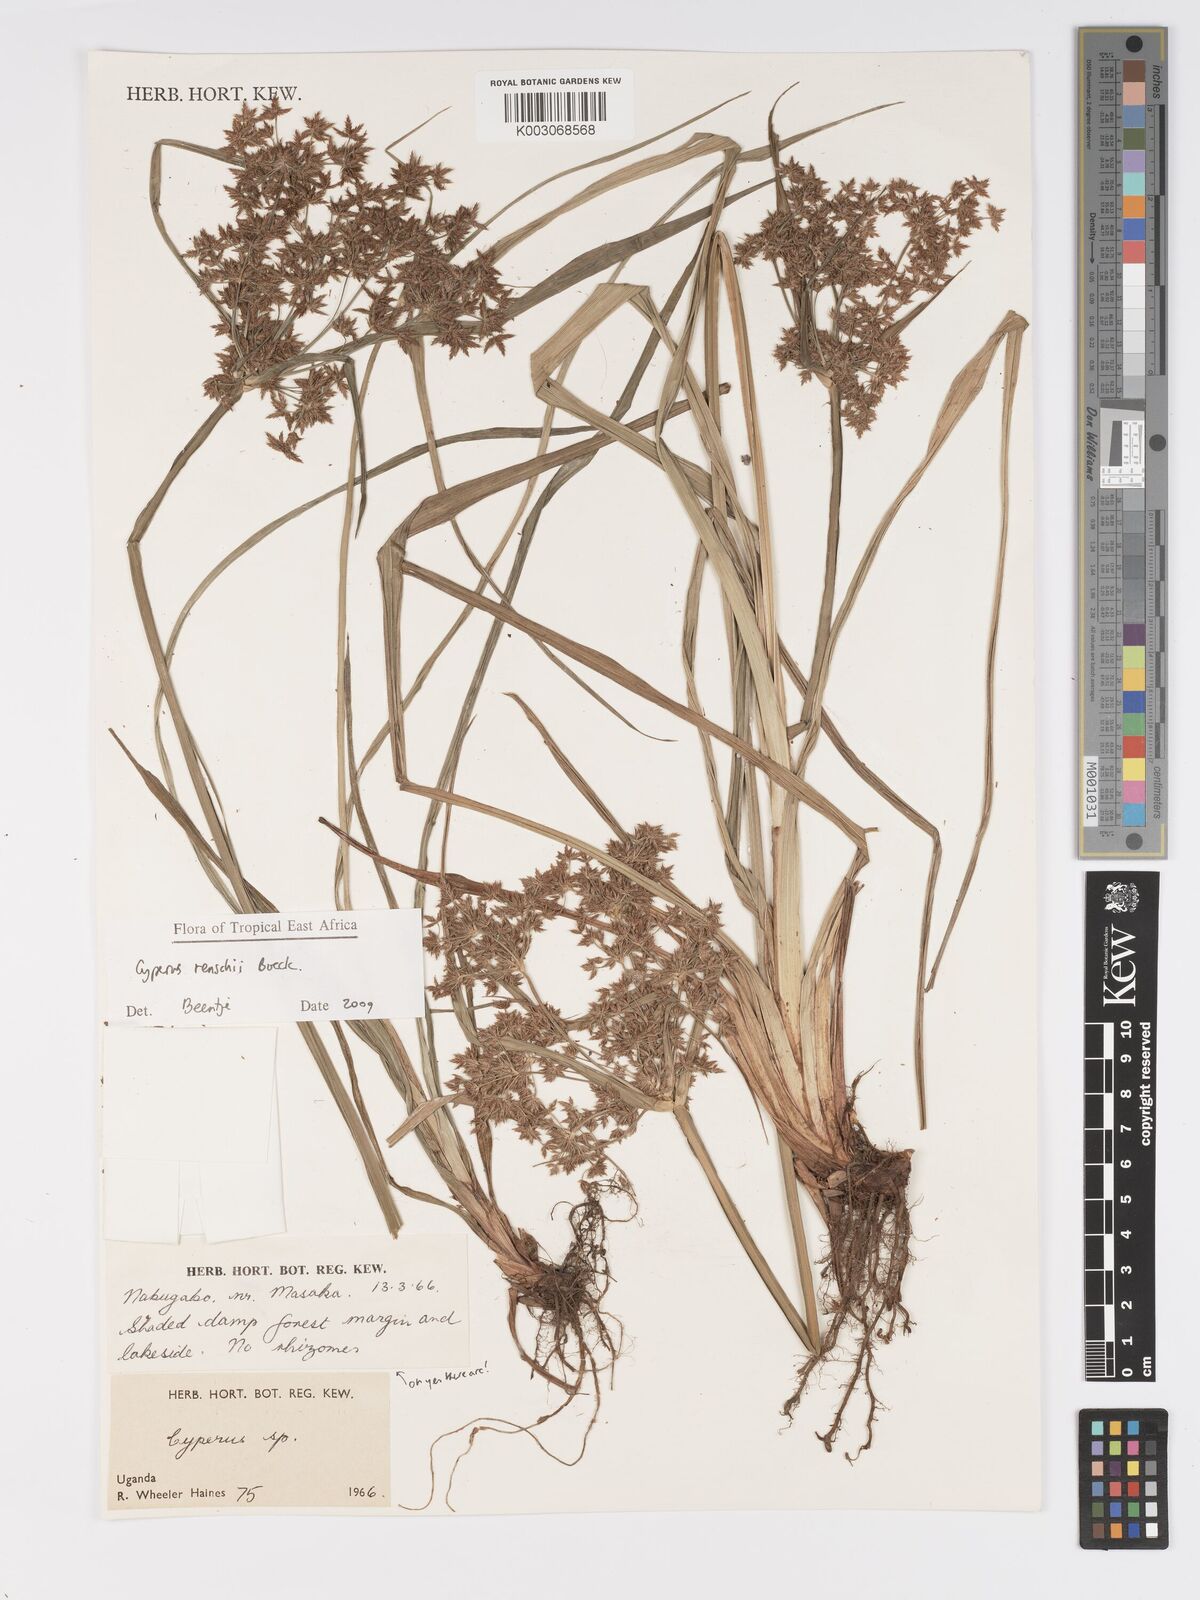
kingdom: Plantae
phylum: Tracheophyta
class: Liliopsida
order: Poales
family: Cyperaceae
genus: Cyperus
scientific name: Cyperus renschii
